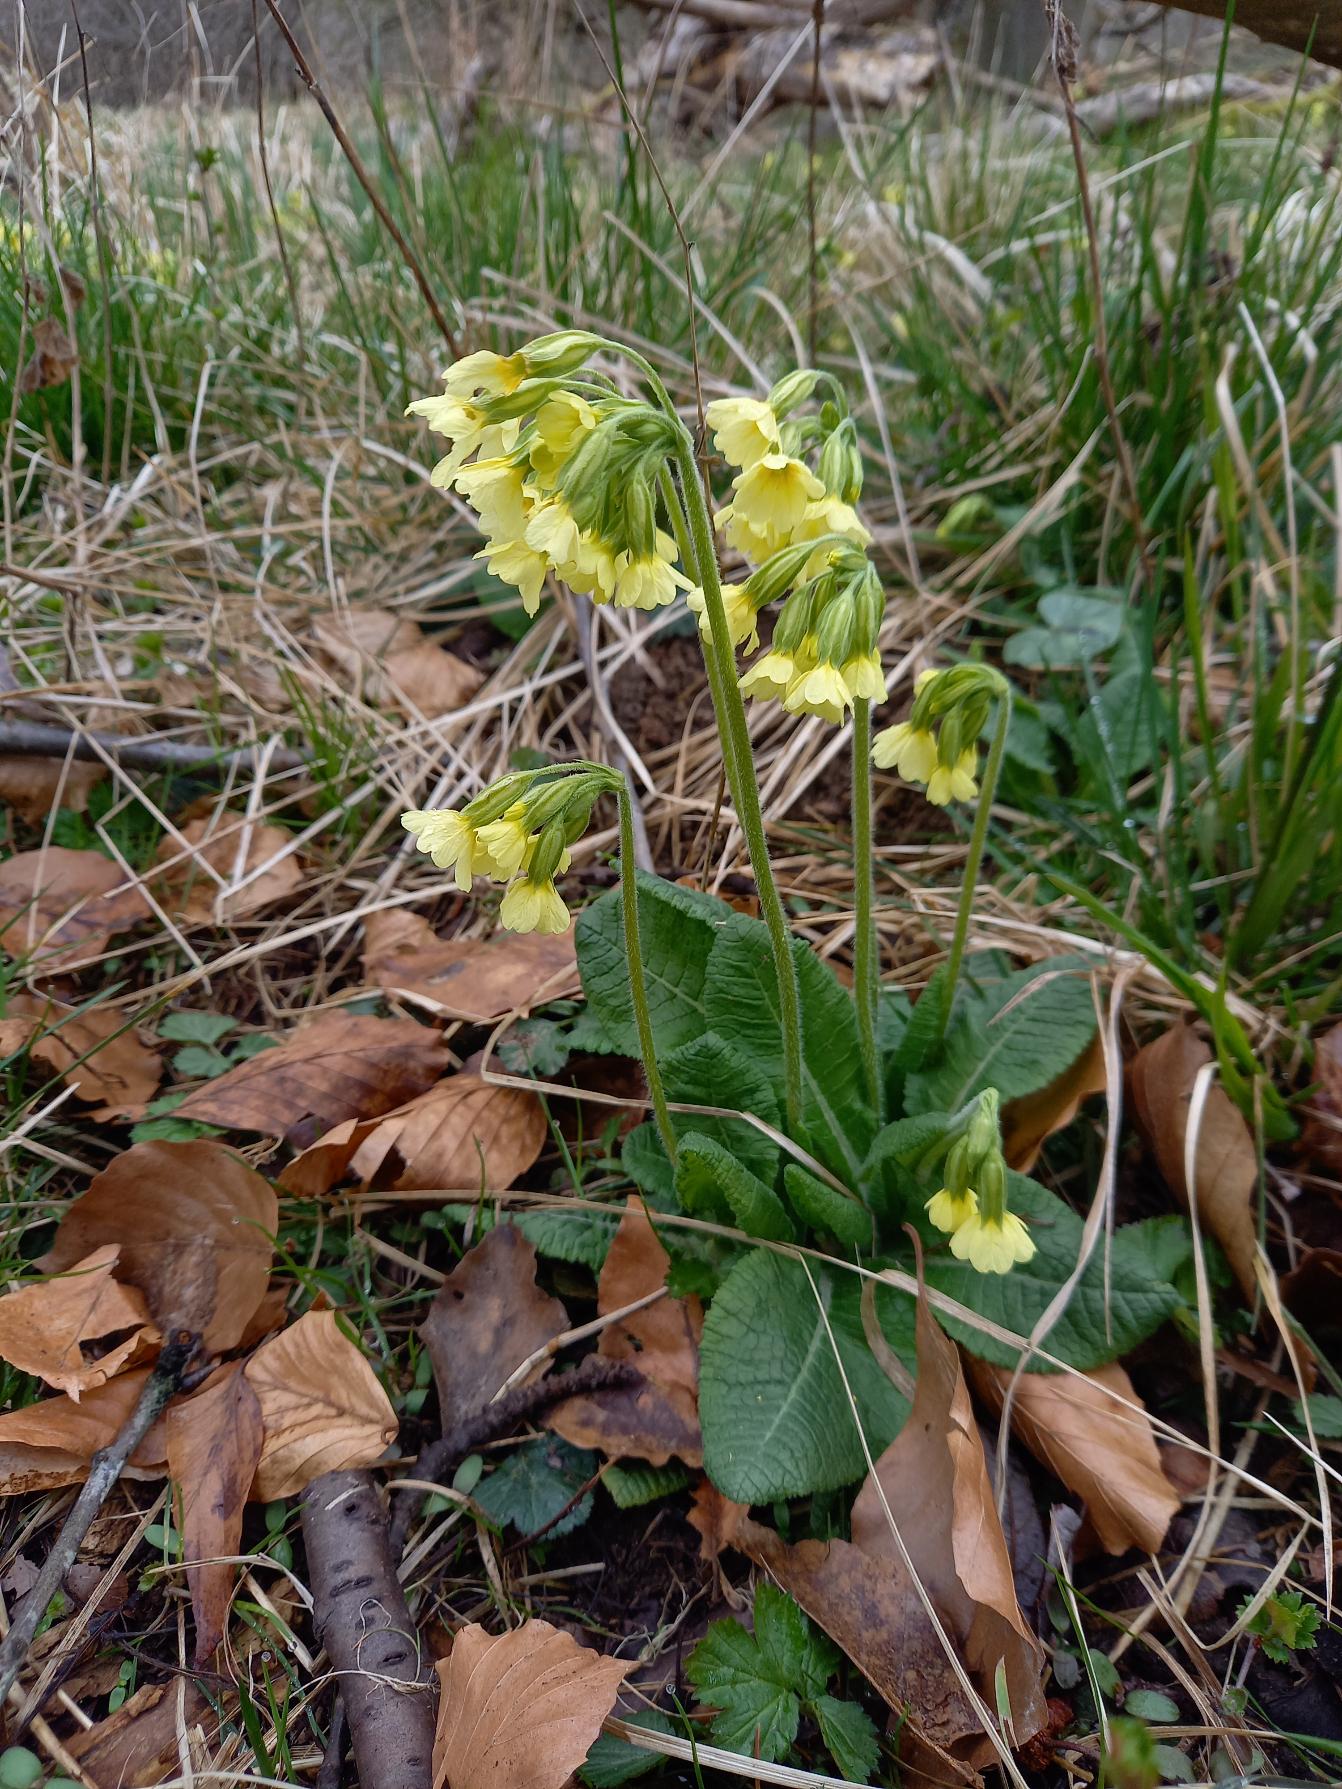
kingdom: Plantae
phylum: Tracheophyta
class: Magnoliopsida
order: Ericales
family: Primulaceae
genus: Primula
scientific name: Primula elatior
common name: Fladkravet kodriver
